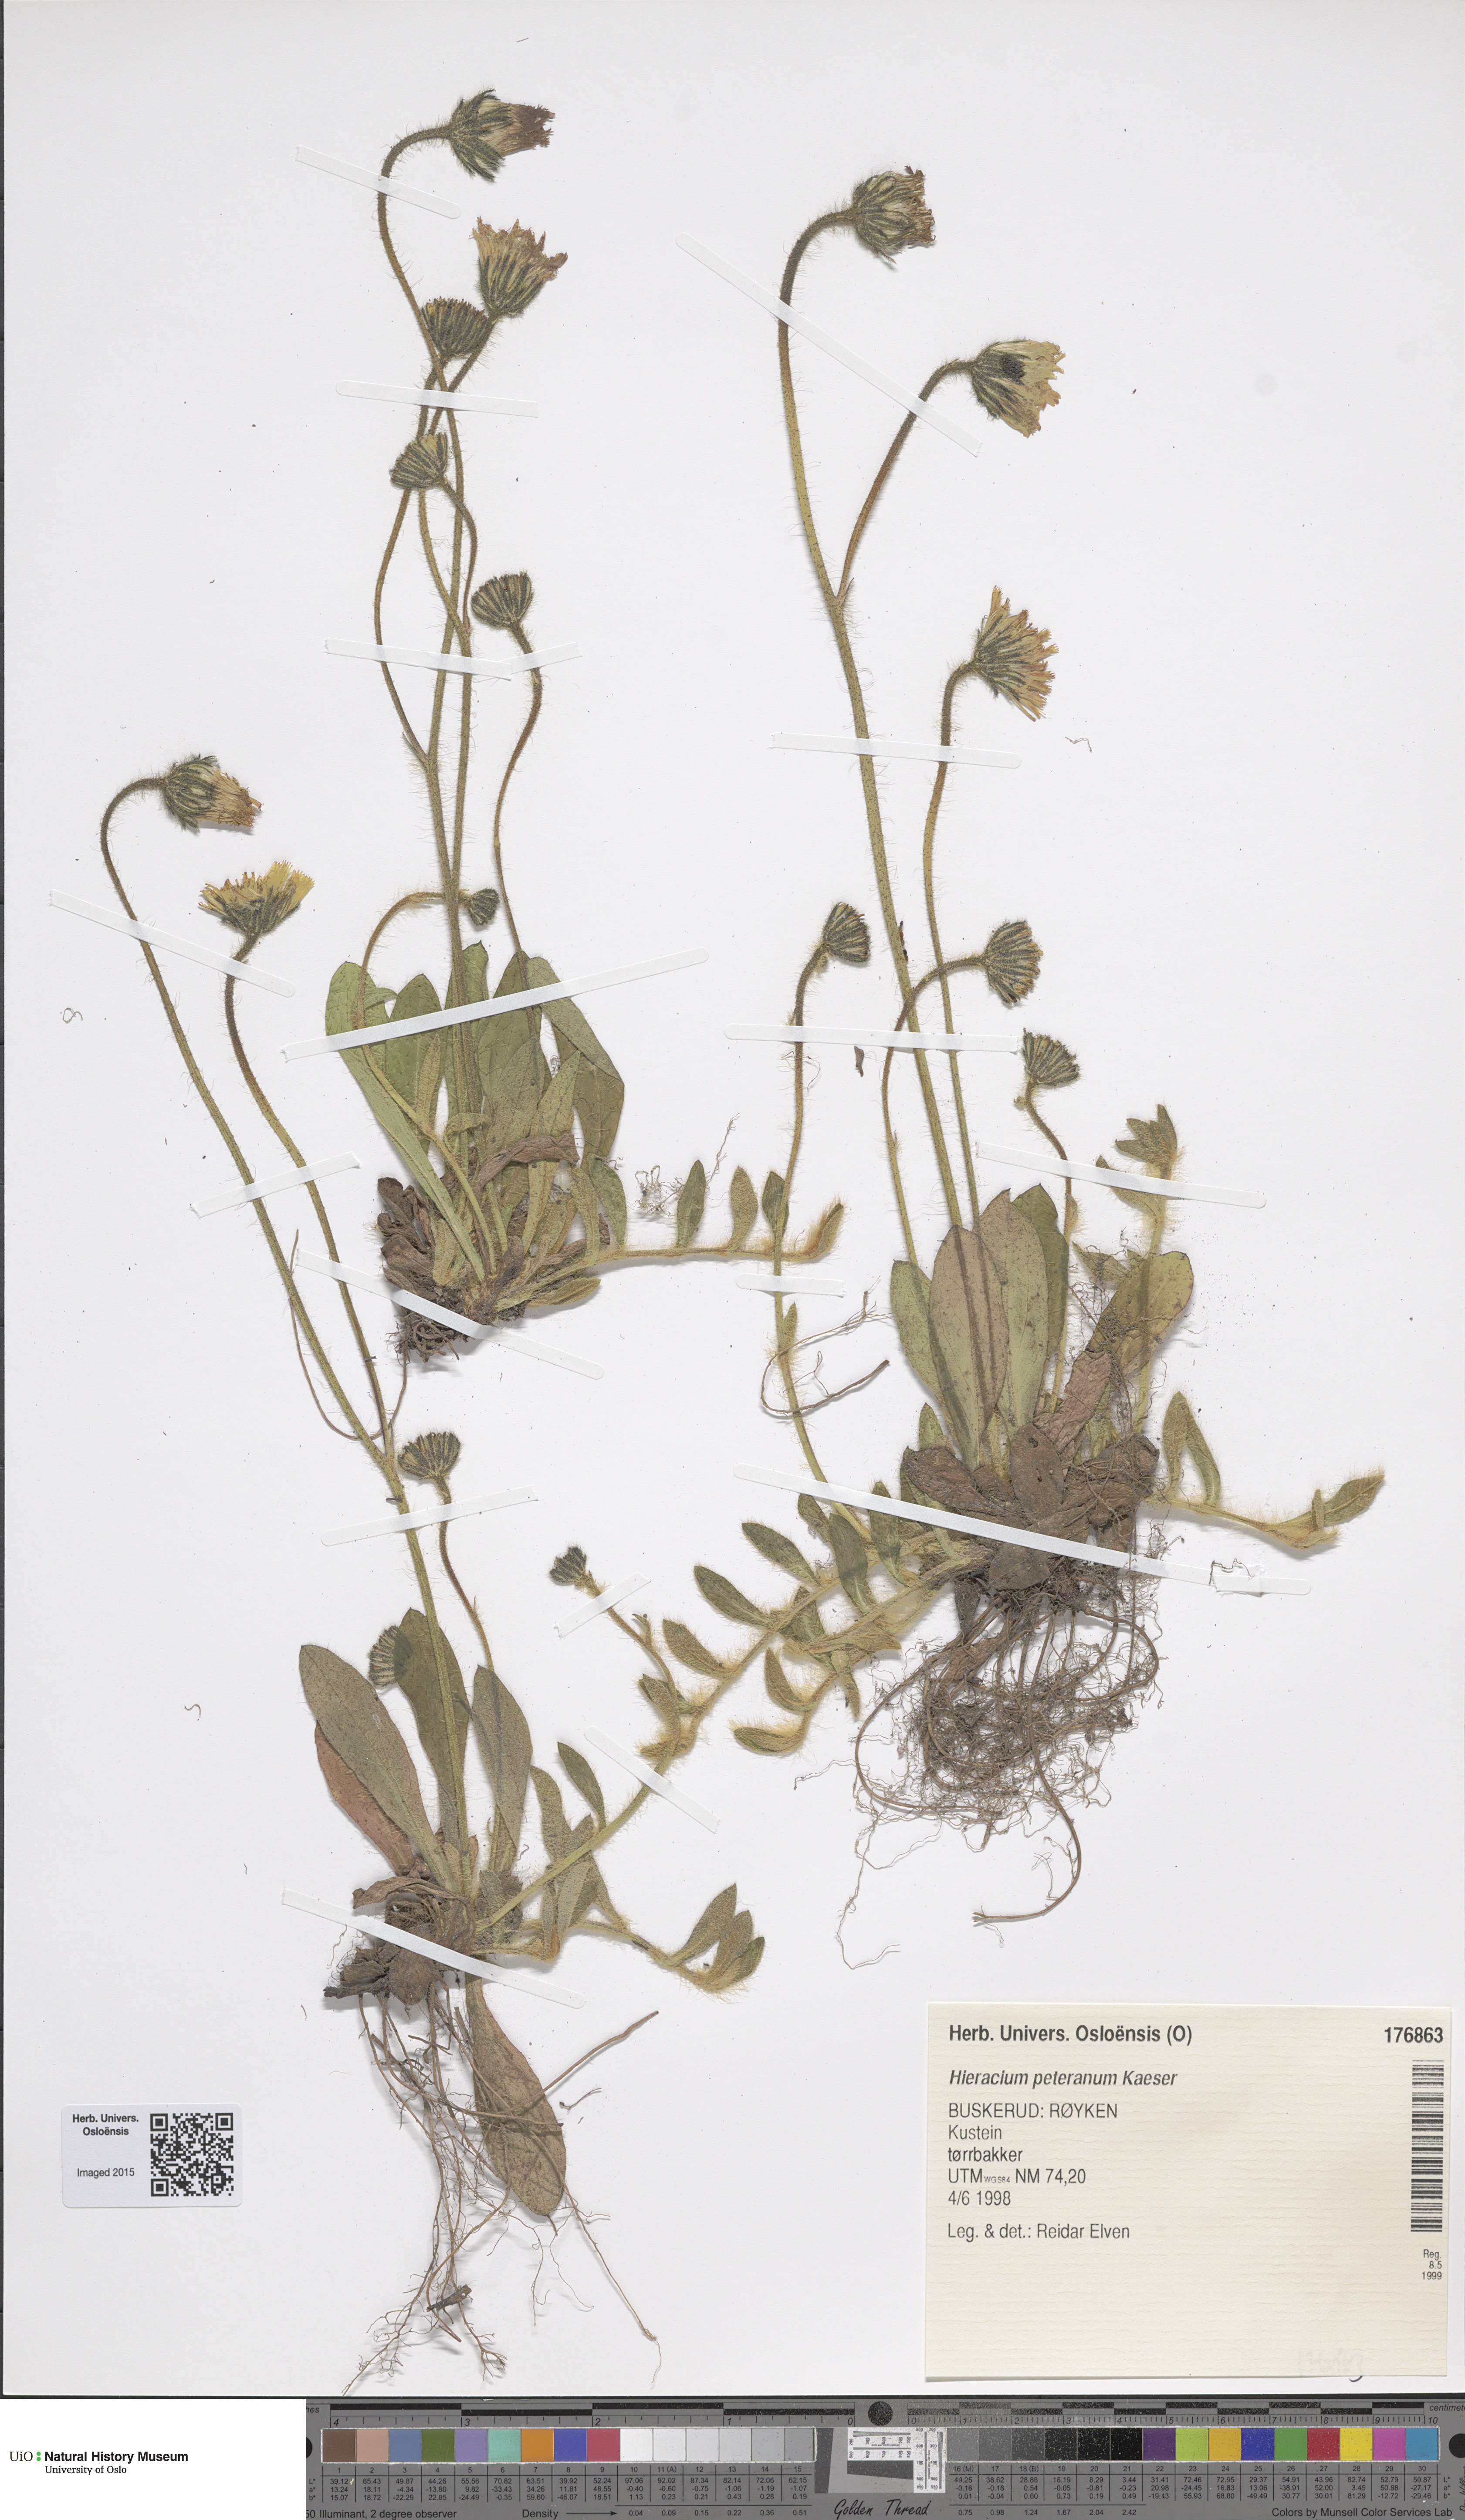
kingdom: Plantae
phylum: Tracheophyta
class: Magnoliopsida
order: Asterales
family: Asteraceae
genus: Pilosella
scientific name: Pilosella peteriana
